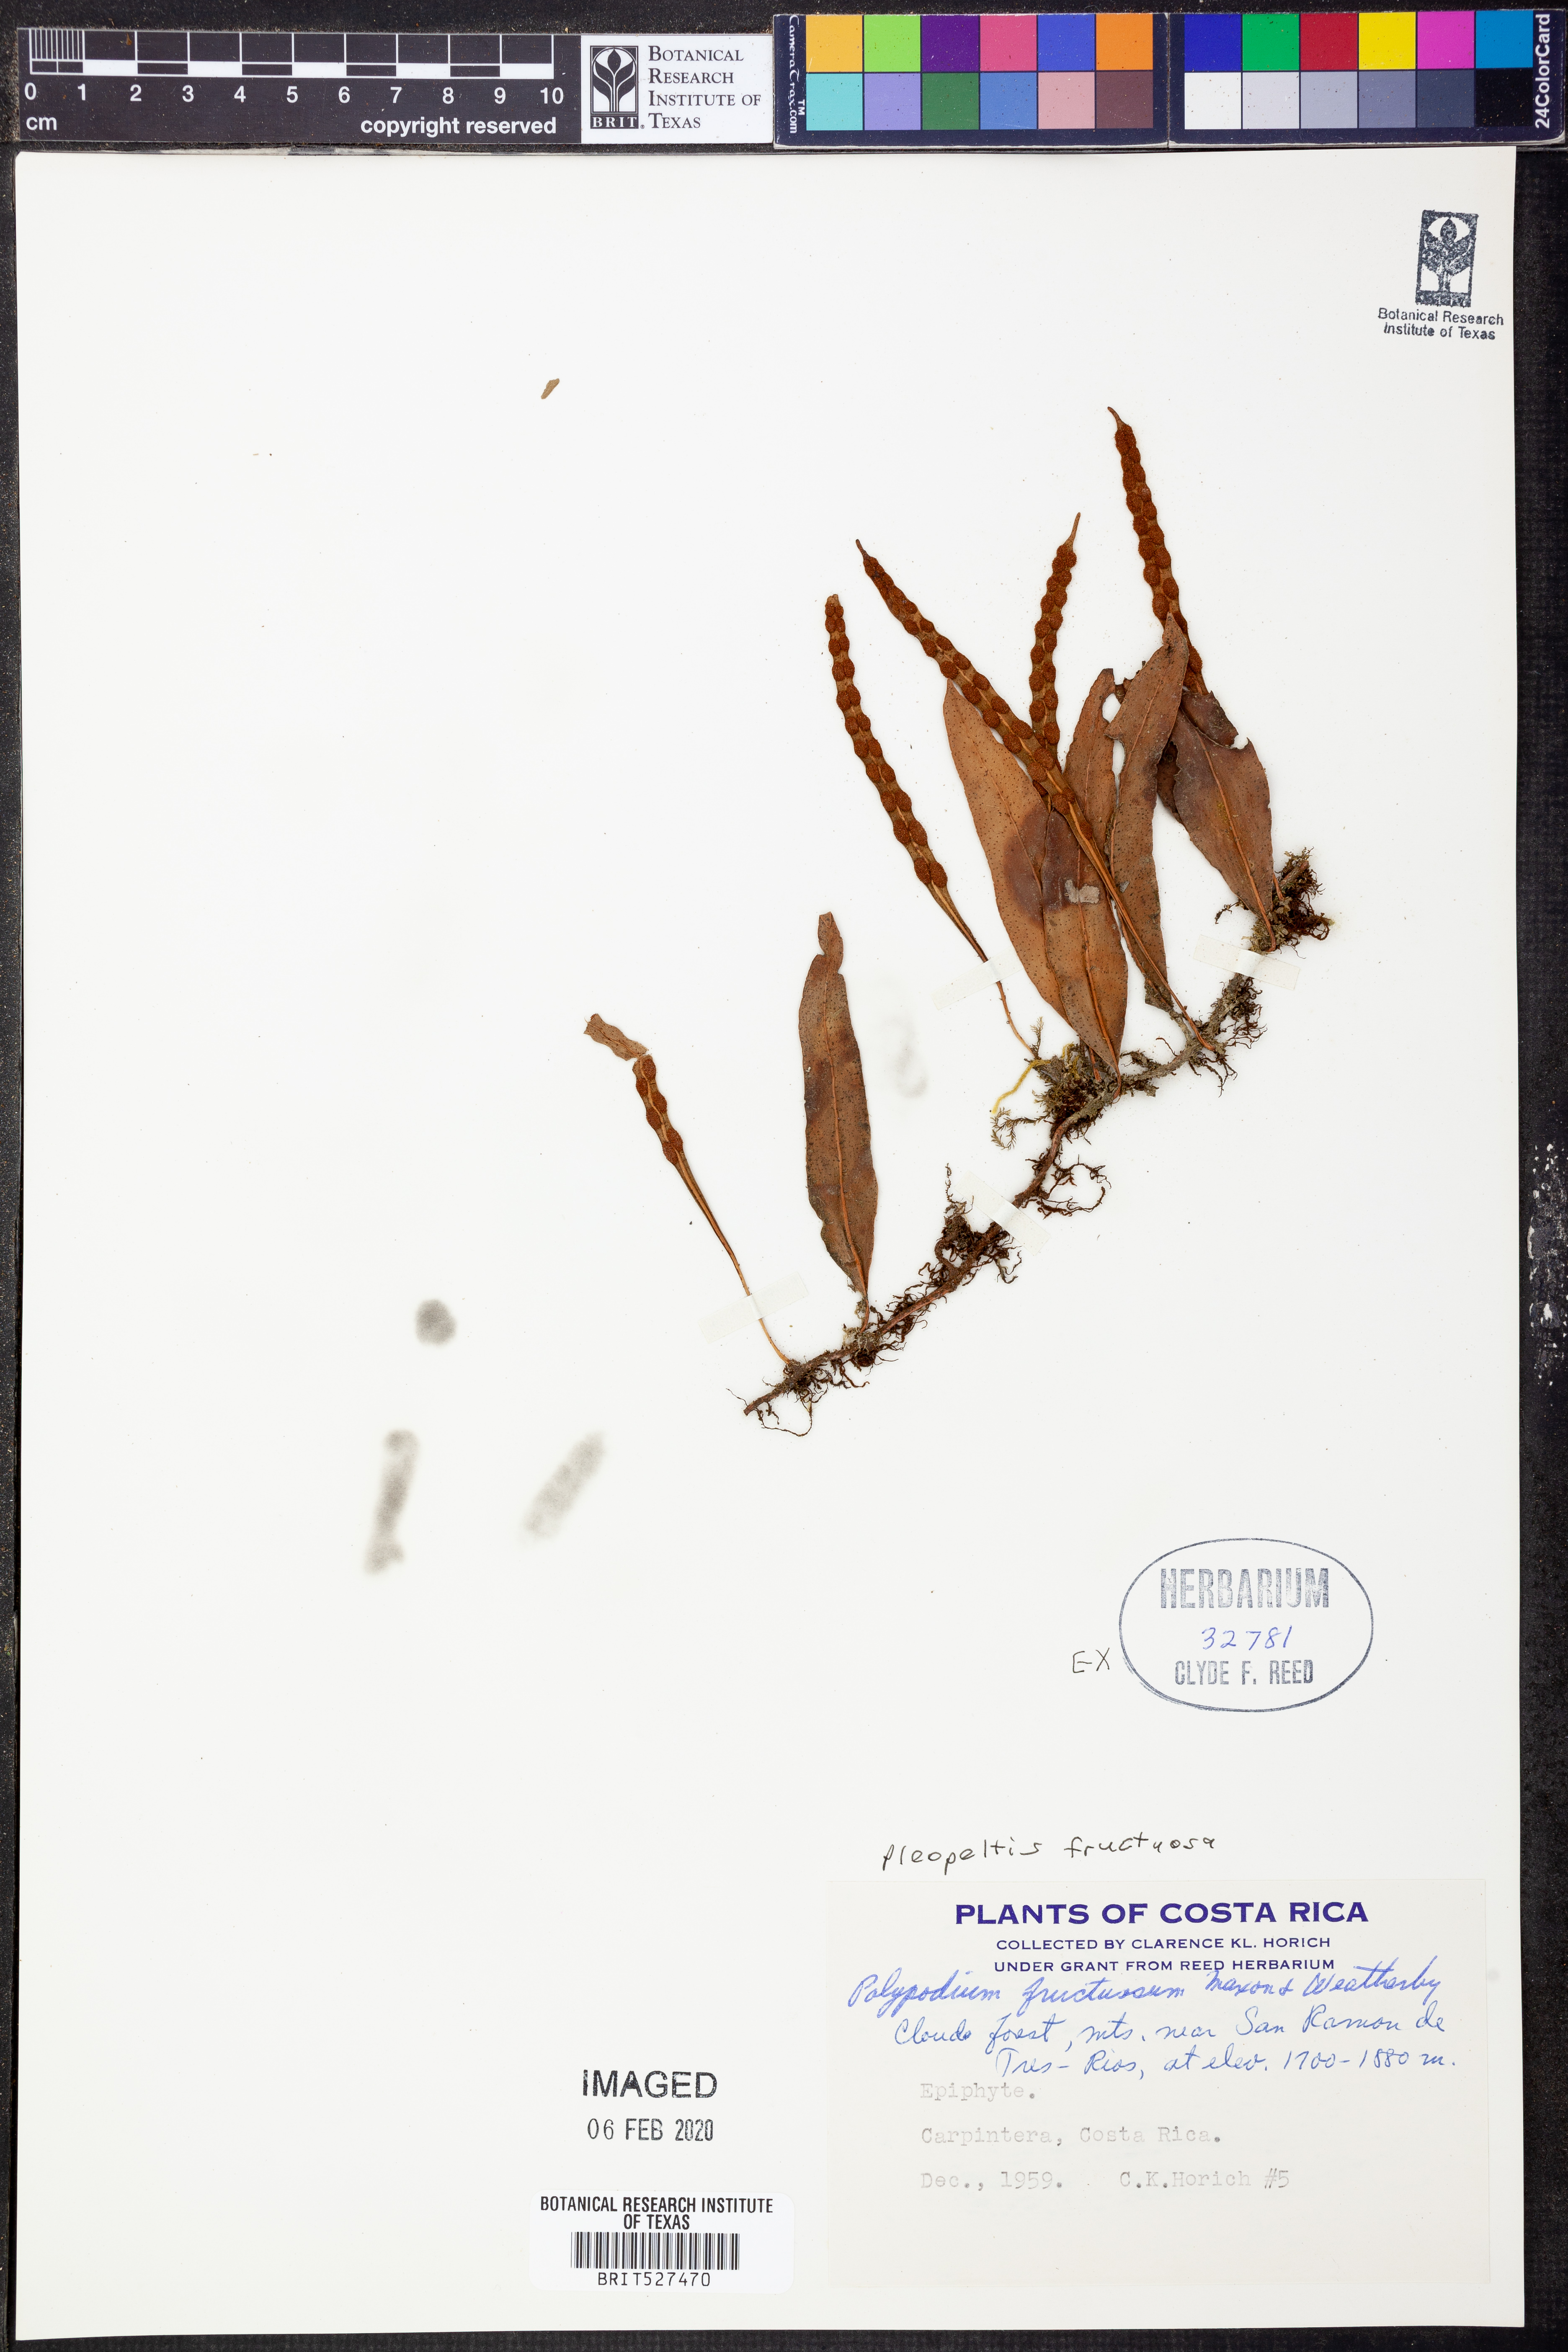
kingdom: Plantae
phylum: Tracheophyta
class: Polypodiopsida
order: Polypodiales
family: Polypodiaceae
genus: Pleopeltis
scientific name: Pleopeltis fructuosa
